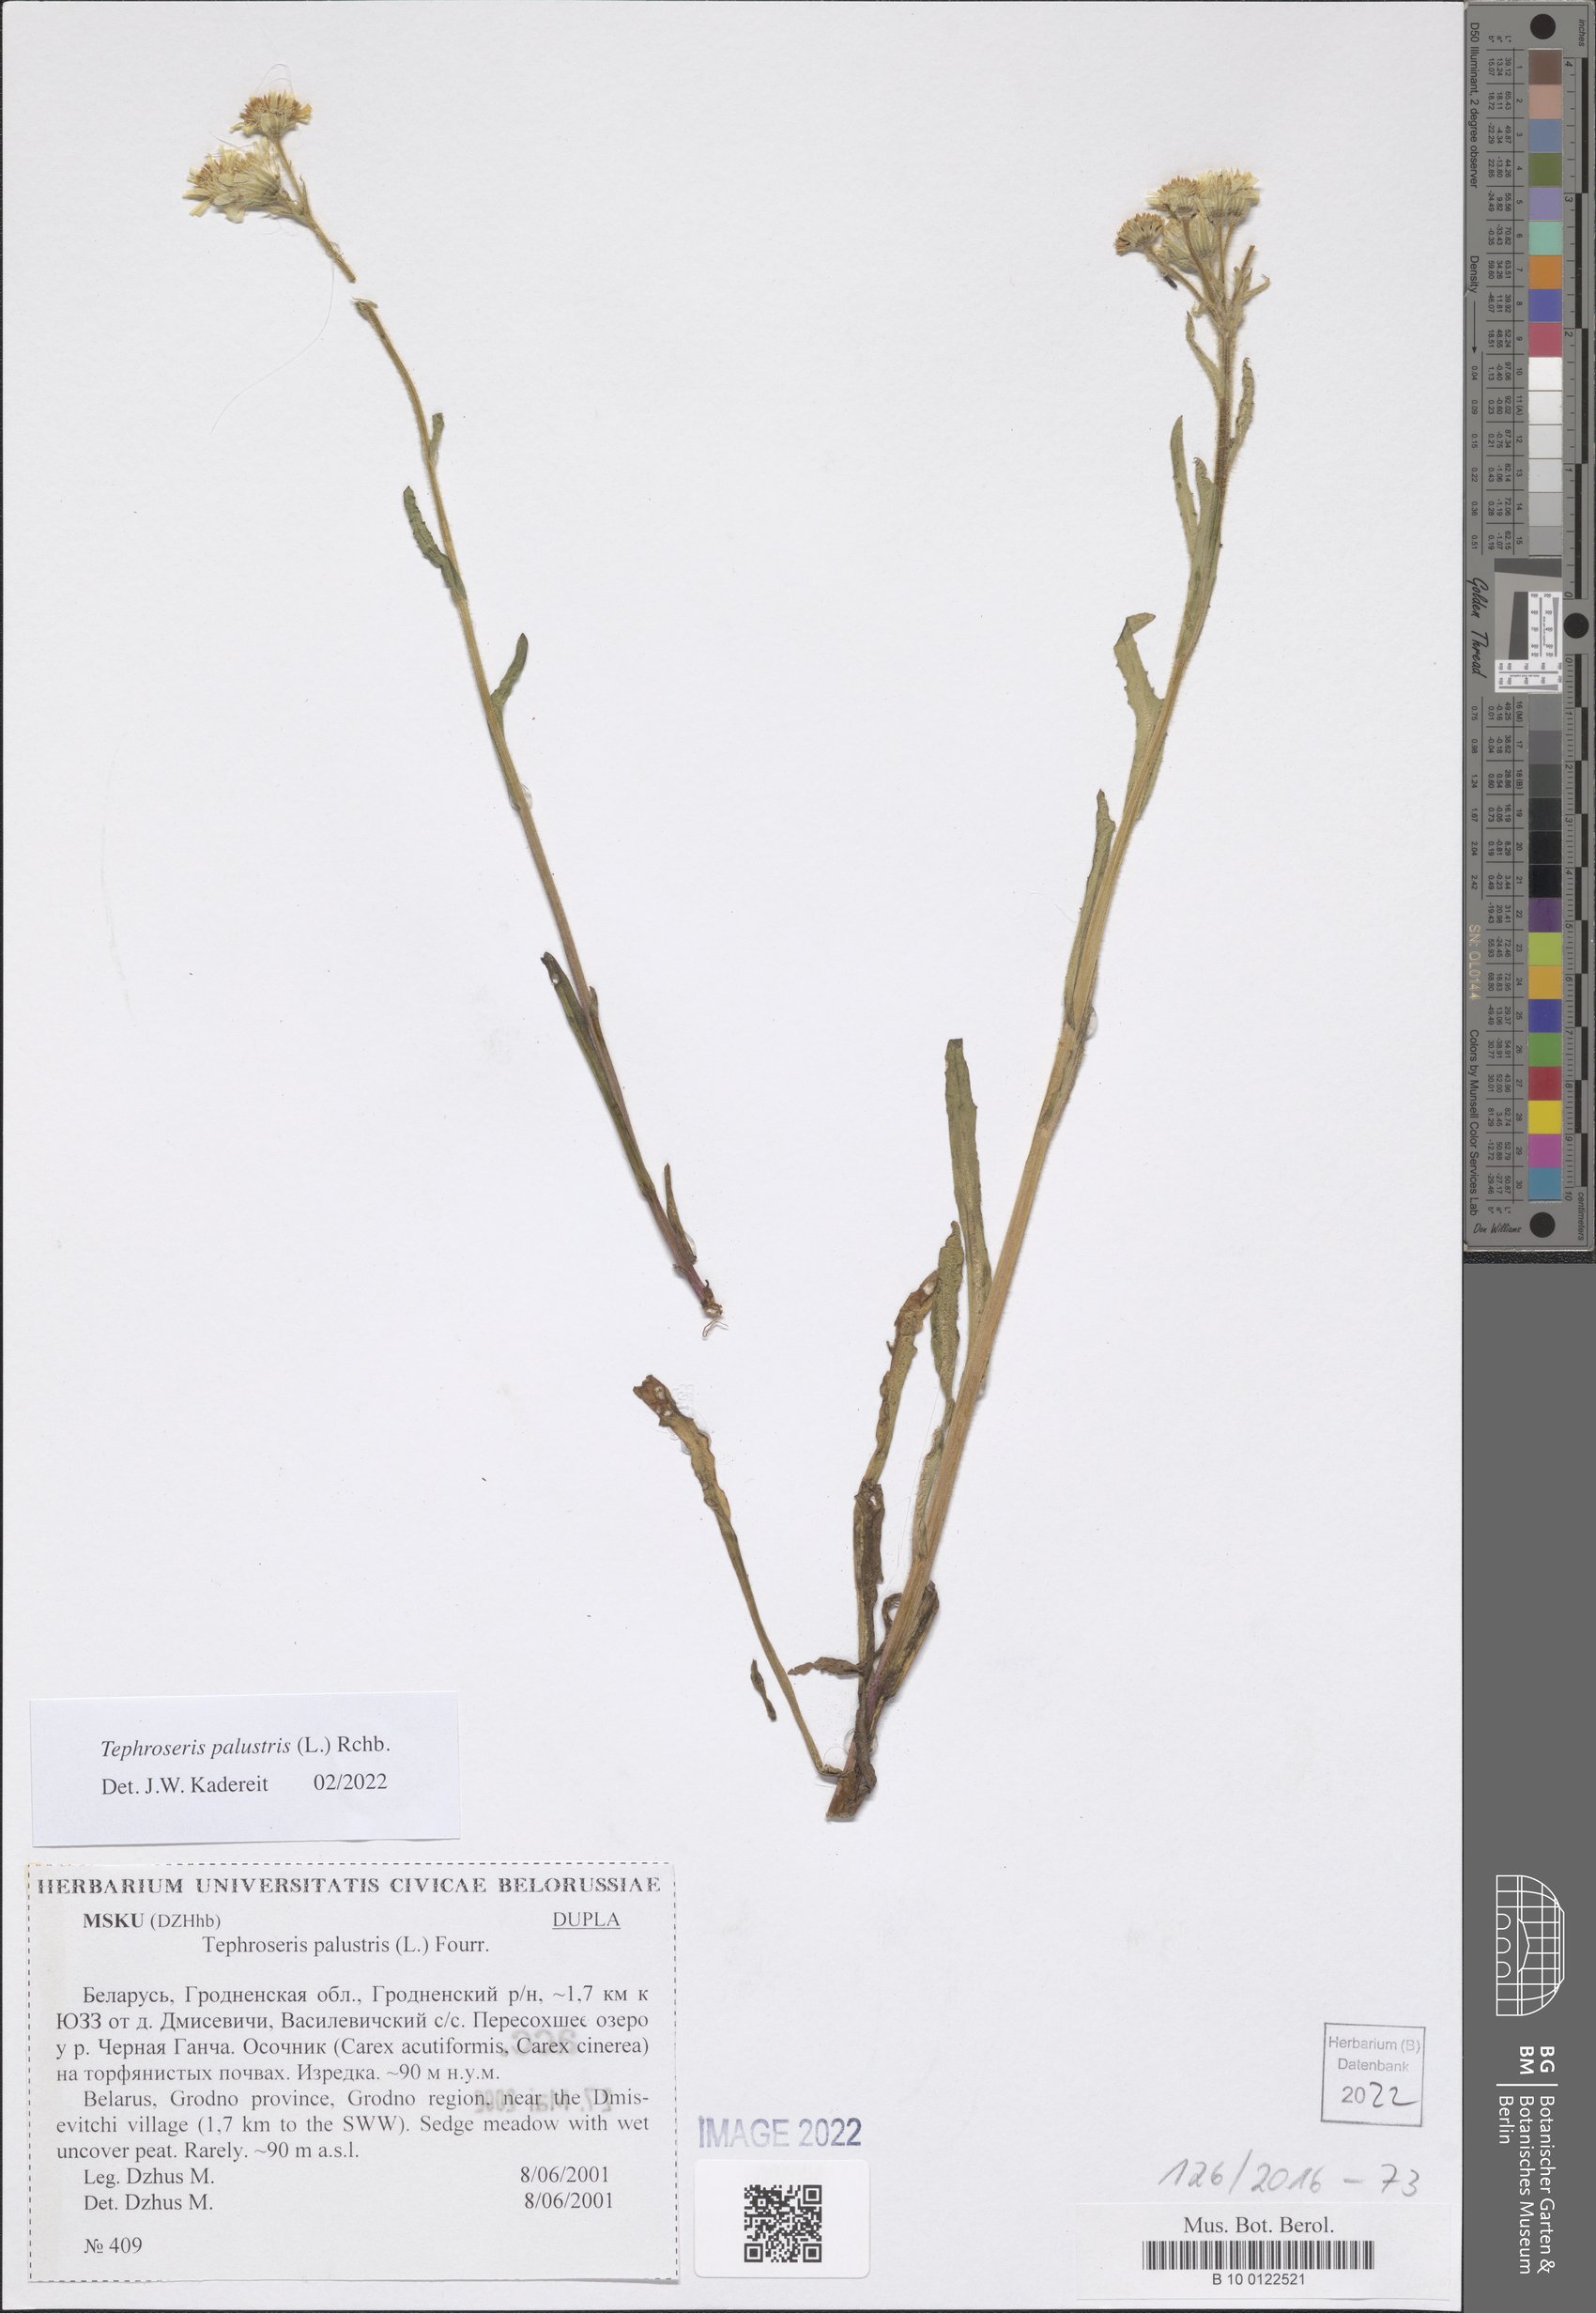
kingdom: Plantae
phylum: Tracheophyta
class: Magnoliopsida
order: Asterales
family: Asteraceae
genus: Tephroseris
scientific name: Tephroseris palustris
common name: Marsh fleawort
